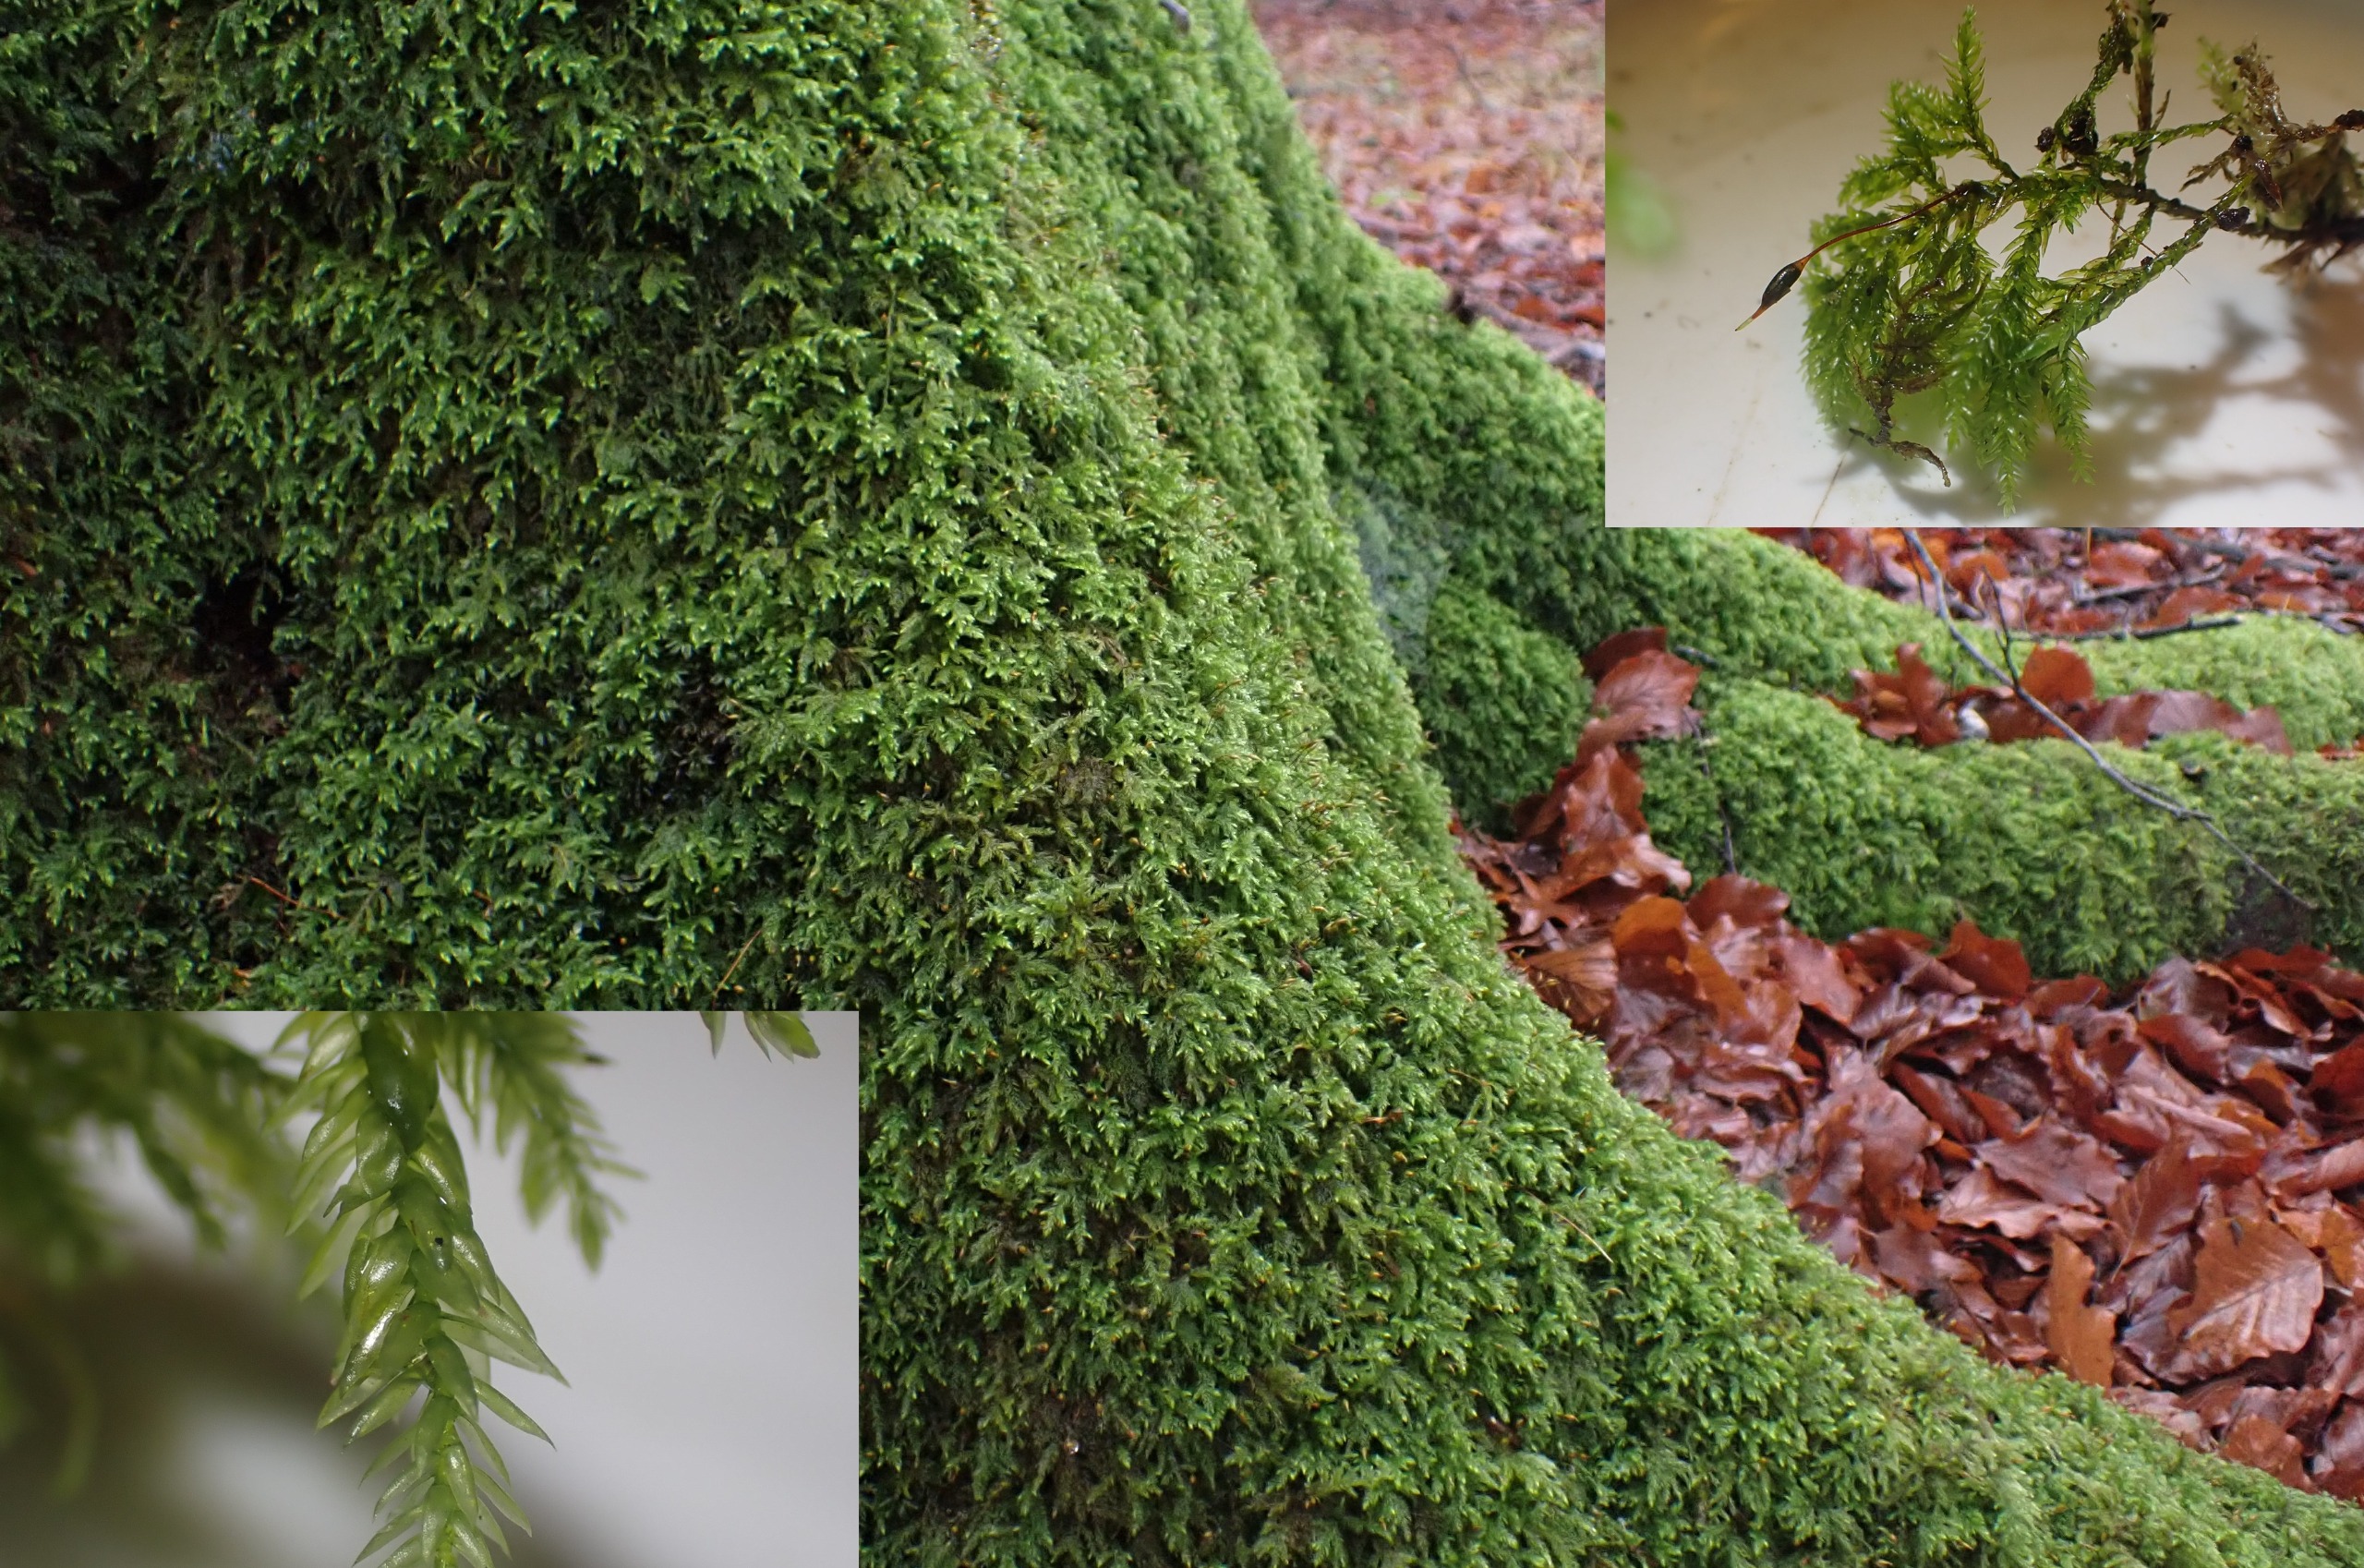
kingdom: Plantae
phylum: Bryophyta
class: Bryopsida
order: Hypnales
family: Lembophyllaceae
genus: Isothecium
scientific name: Isothecium alopecuroides
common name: Stor stammemos
